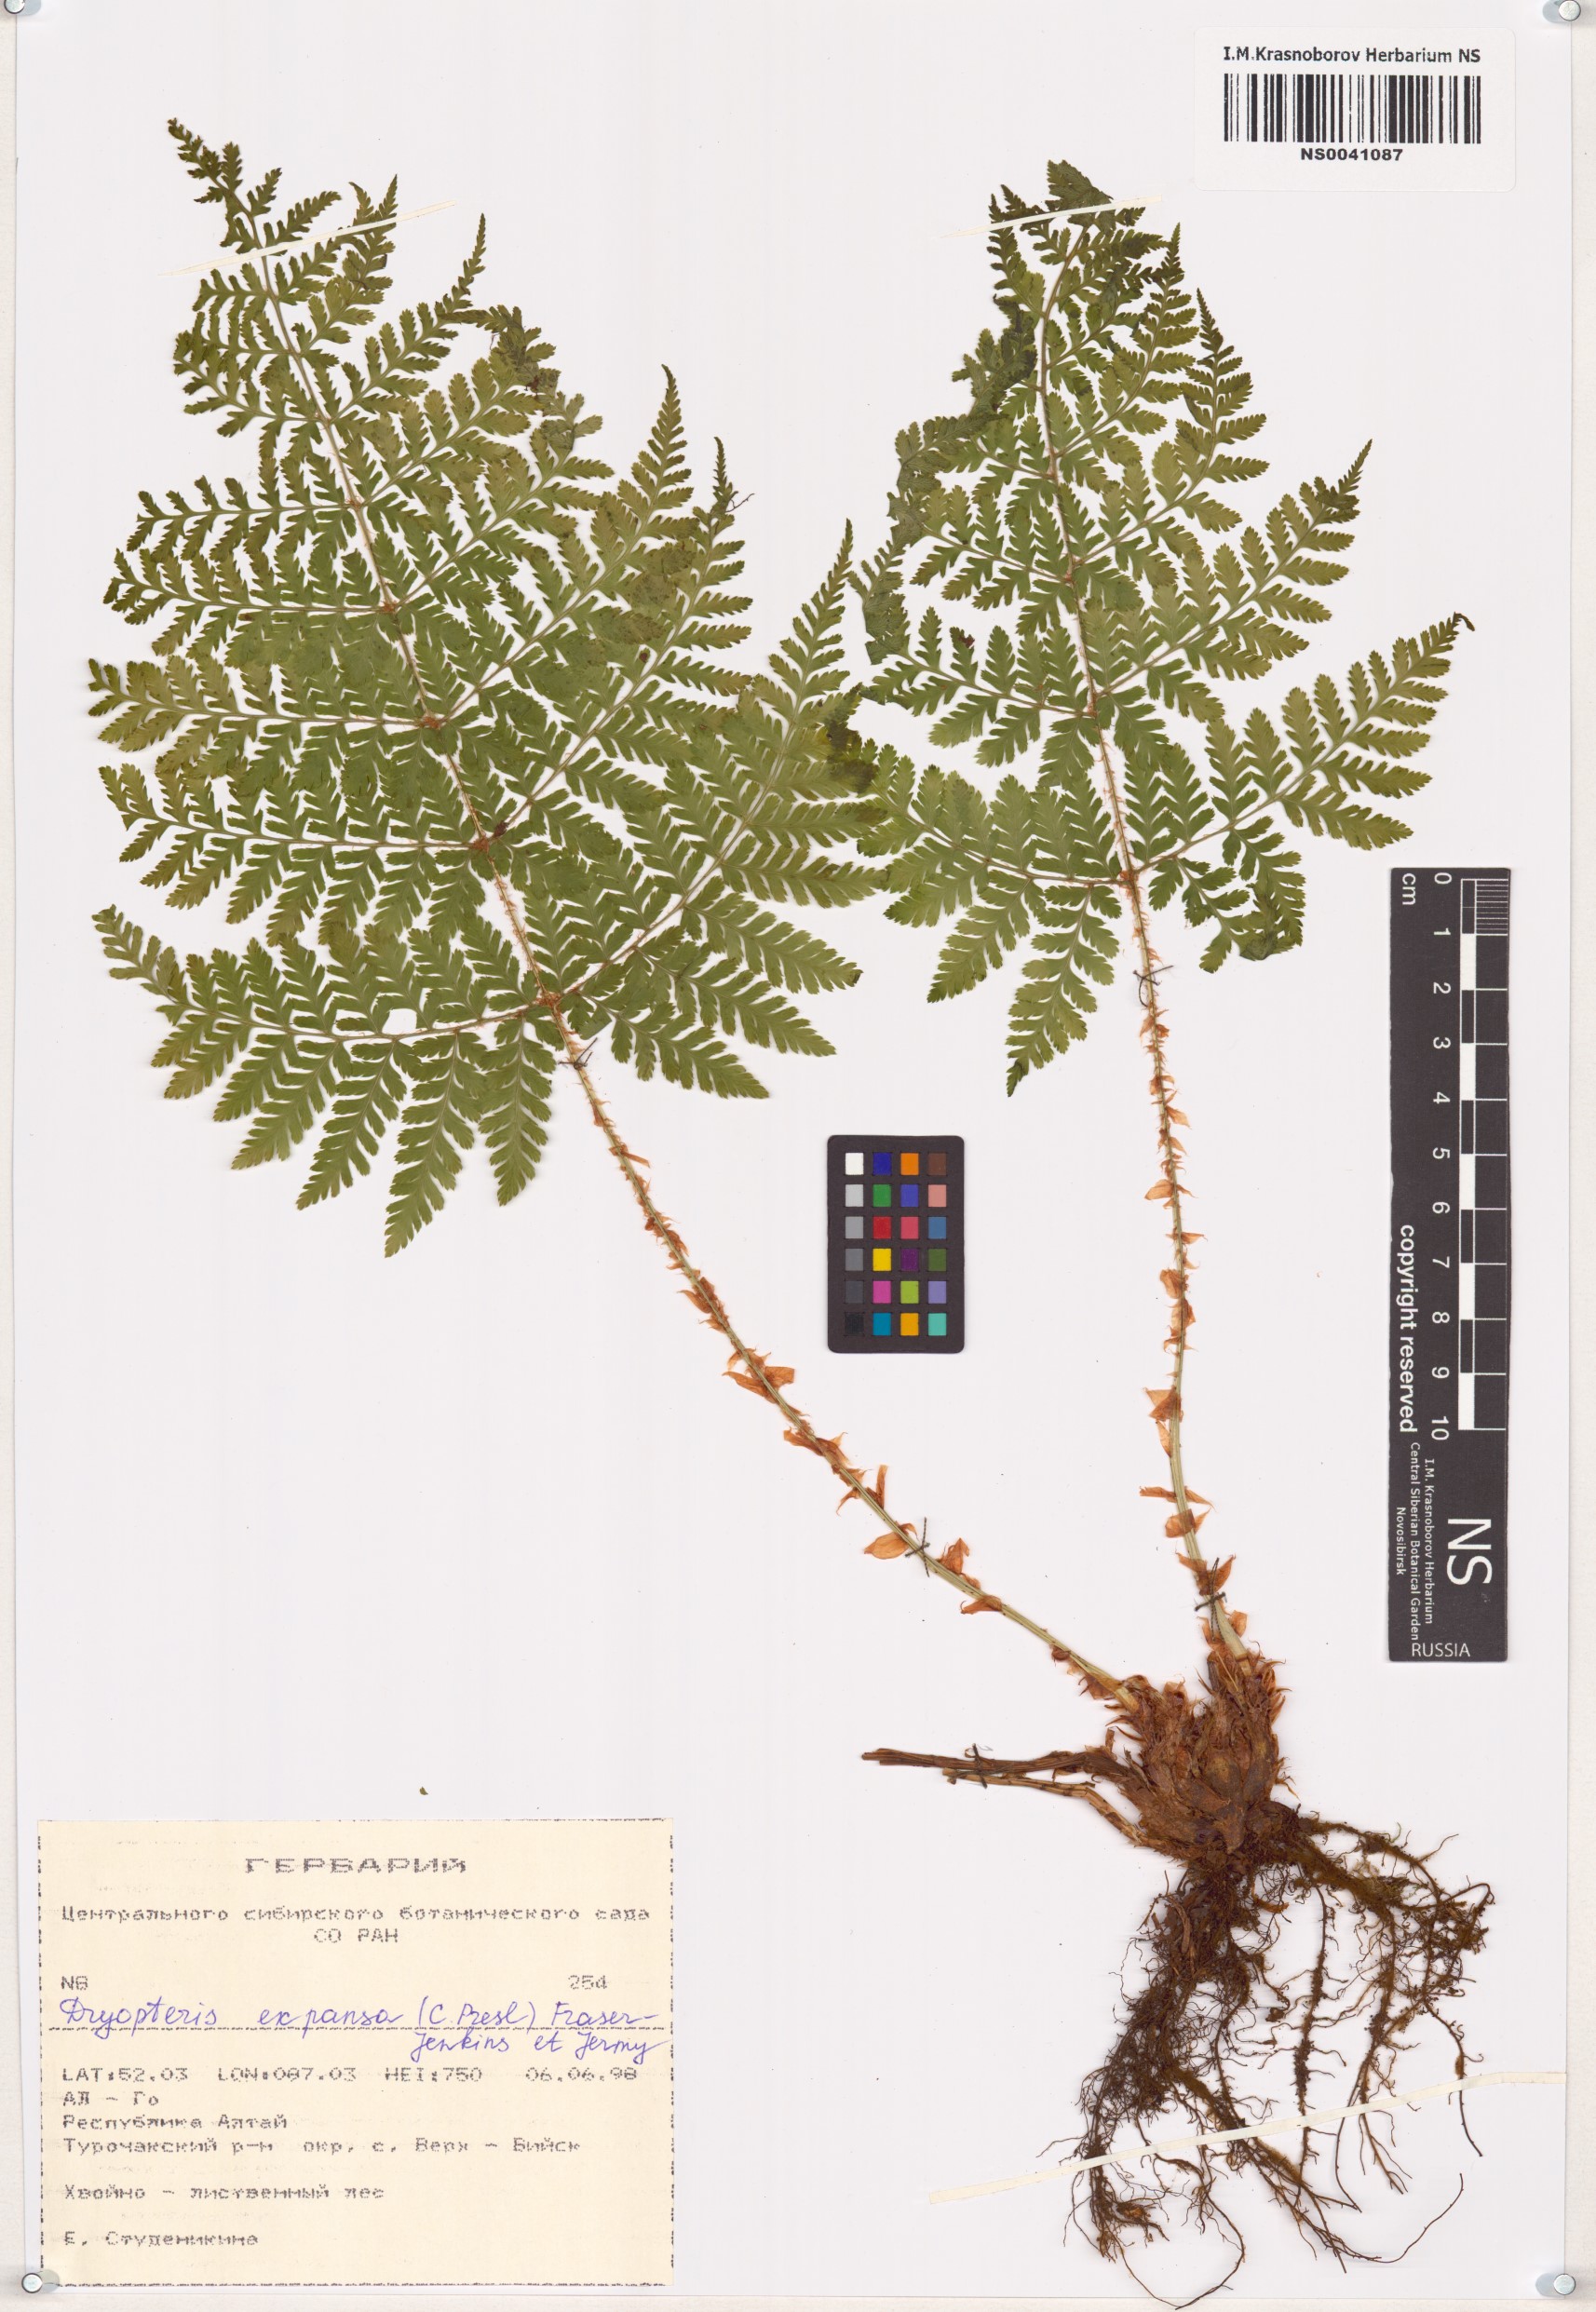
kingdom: Plantae
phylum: Tracheophyta
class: Polypodiopsida
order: Polypodiales
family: Dryopteridaceae
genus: Dryopteris
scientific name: Dryopteris expansa
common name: Northern buckler fern
